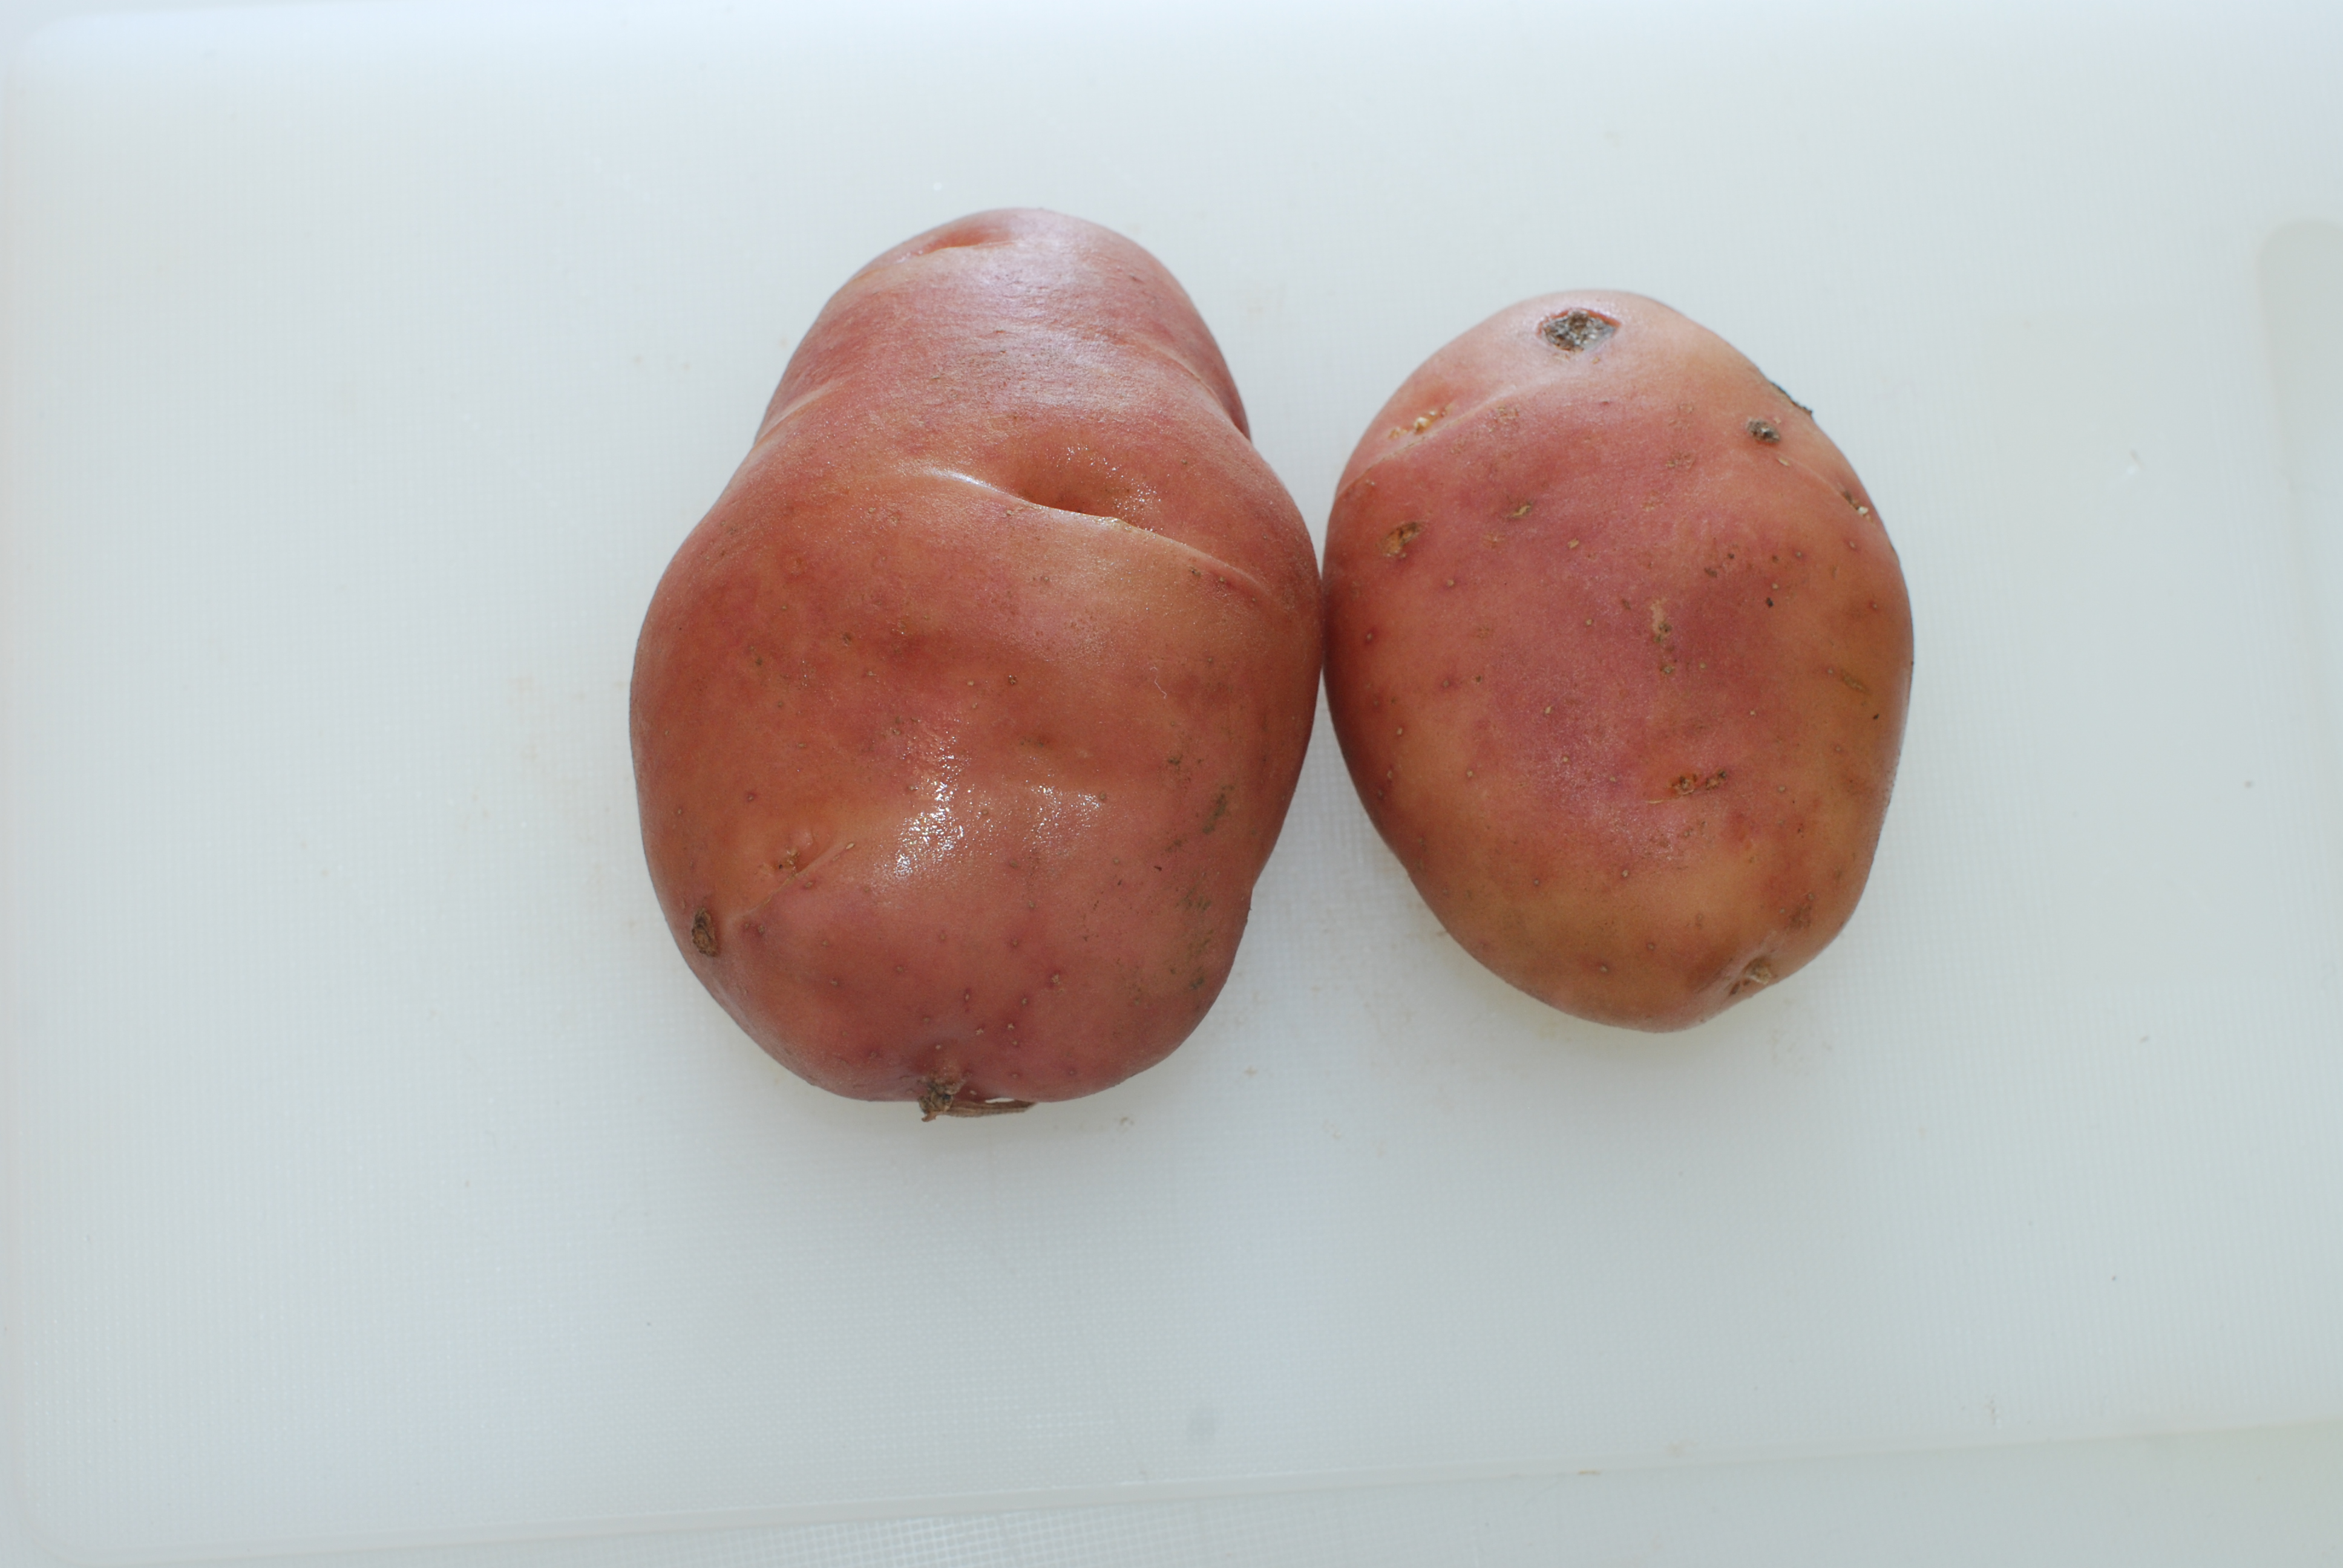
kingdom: Plantae
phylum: Tracheophyta
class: Magnoliopsida
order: Solanales
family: Solanaceae
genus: Solanum
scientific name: Solanum tuberosum
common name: Potato
